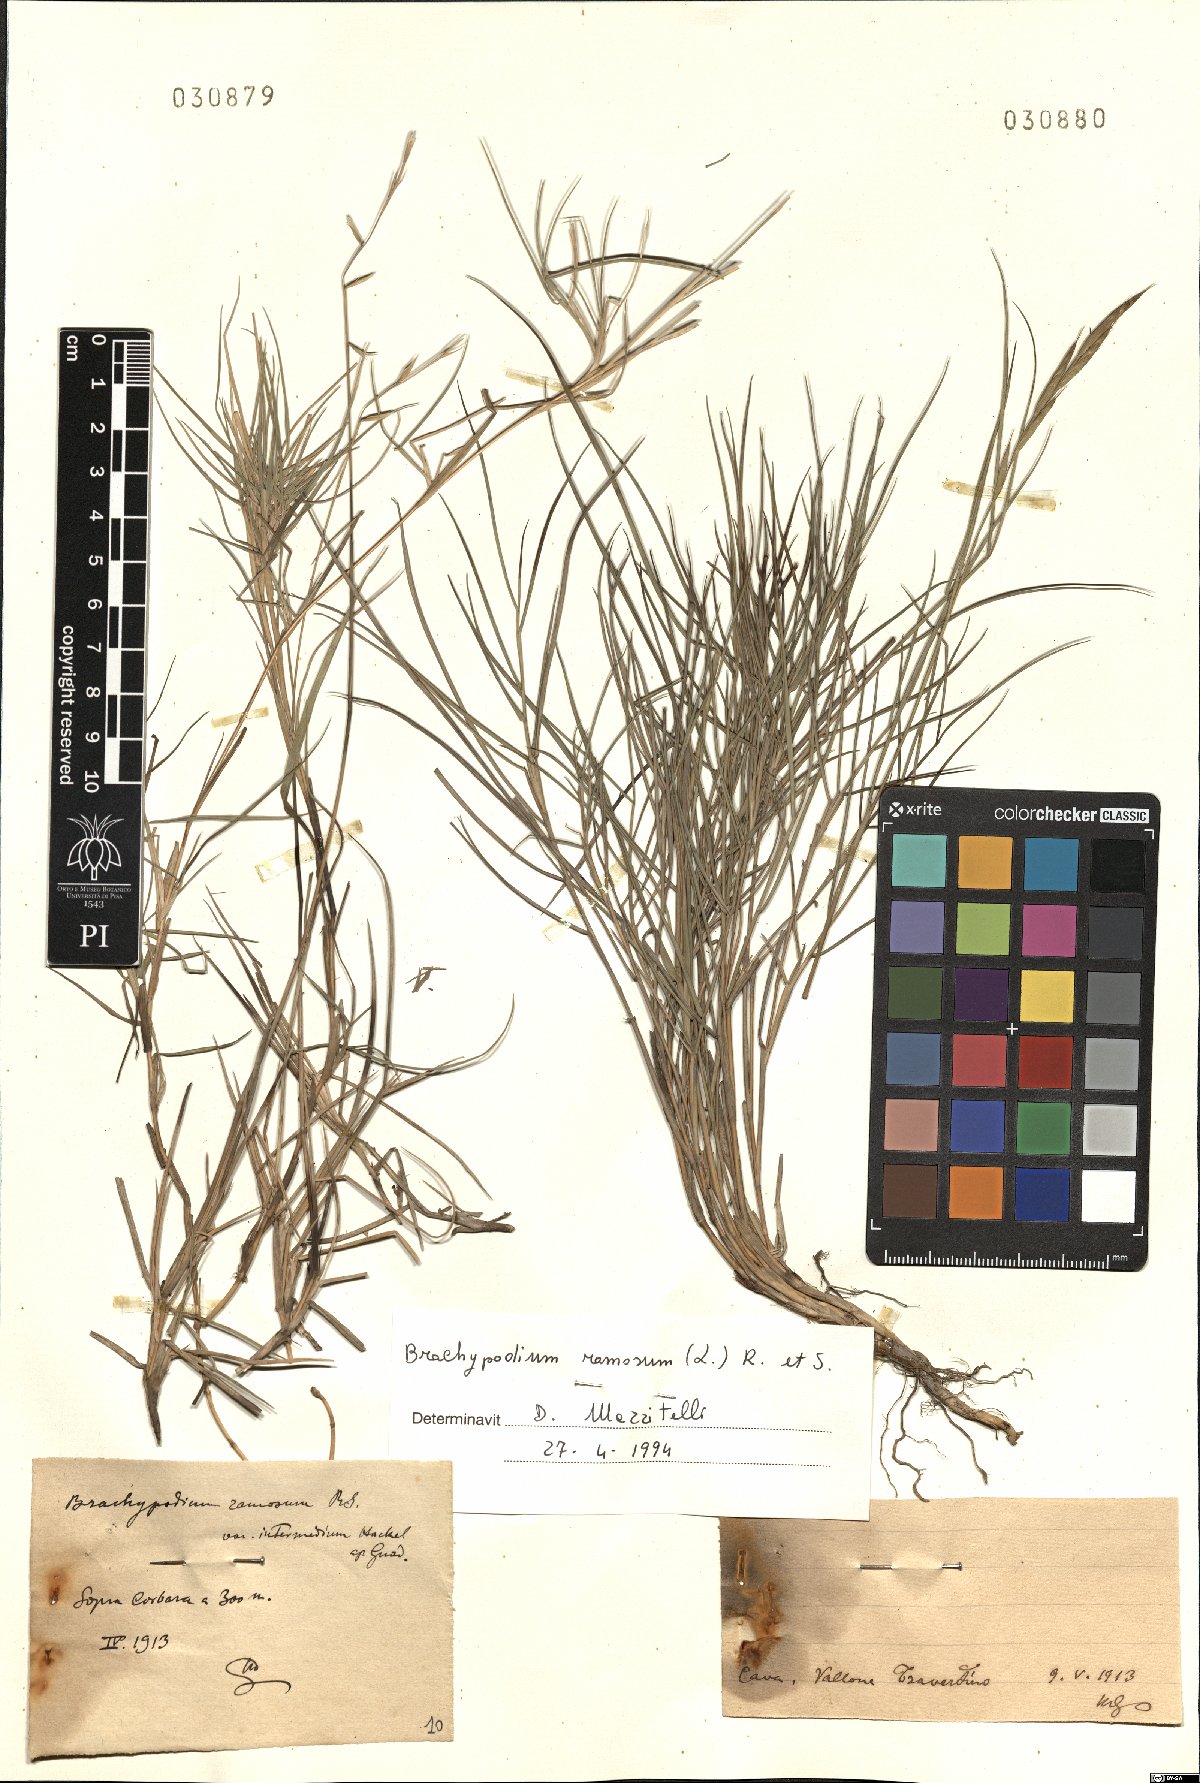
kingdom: Plantae
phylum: Tracheophyta
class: Liliopsida
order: Poales
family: Poaceae
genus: Brachypodium
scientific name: Brachypodium retusum
